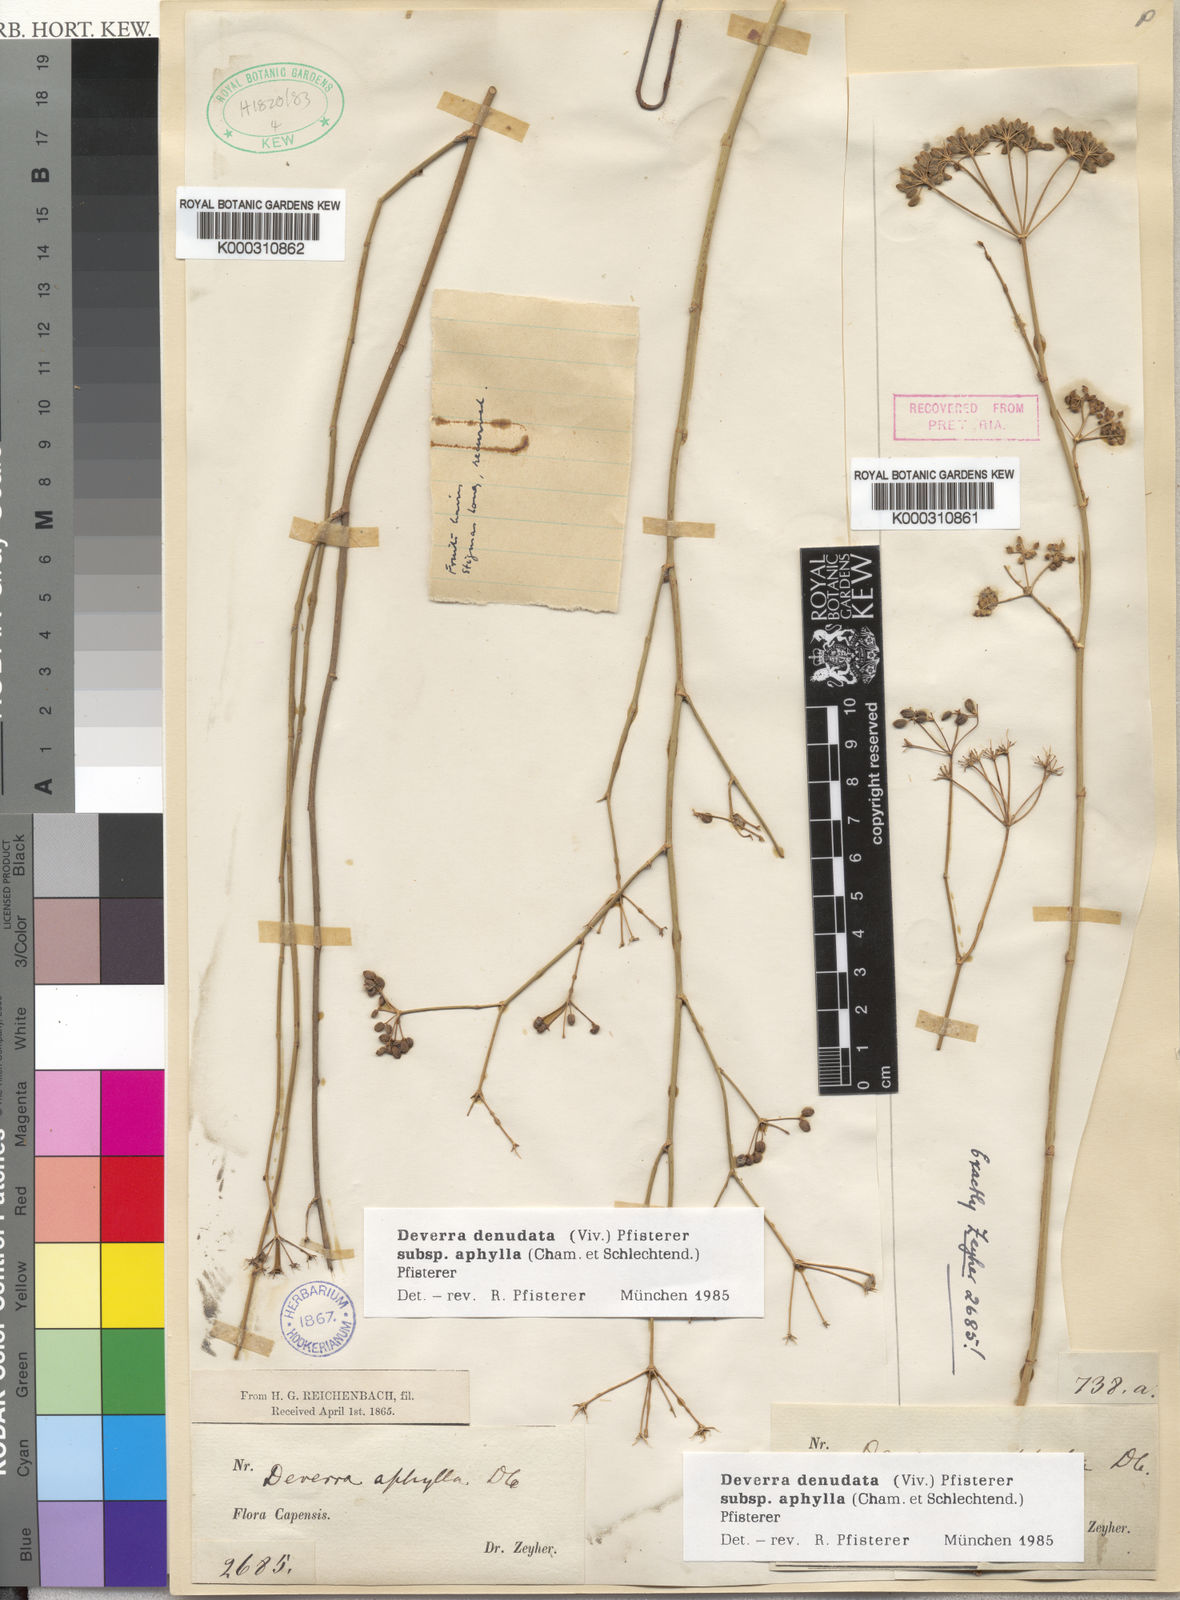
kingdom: Plantae
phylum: Tracheophyta
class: Magnoliopsida
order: Apiales
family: Apiaceae
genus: Deverra
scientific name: Deverra
